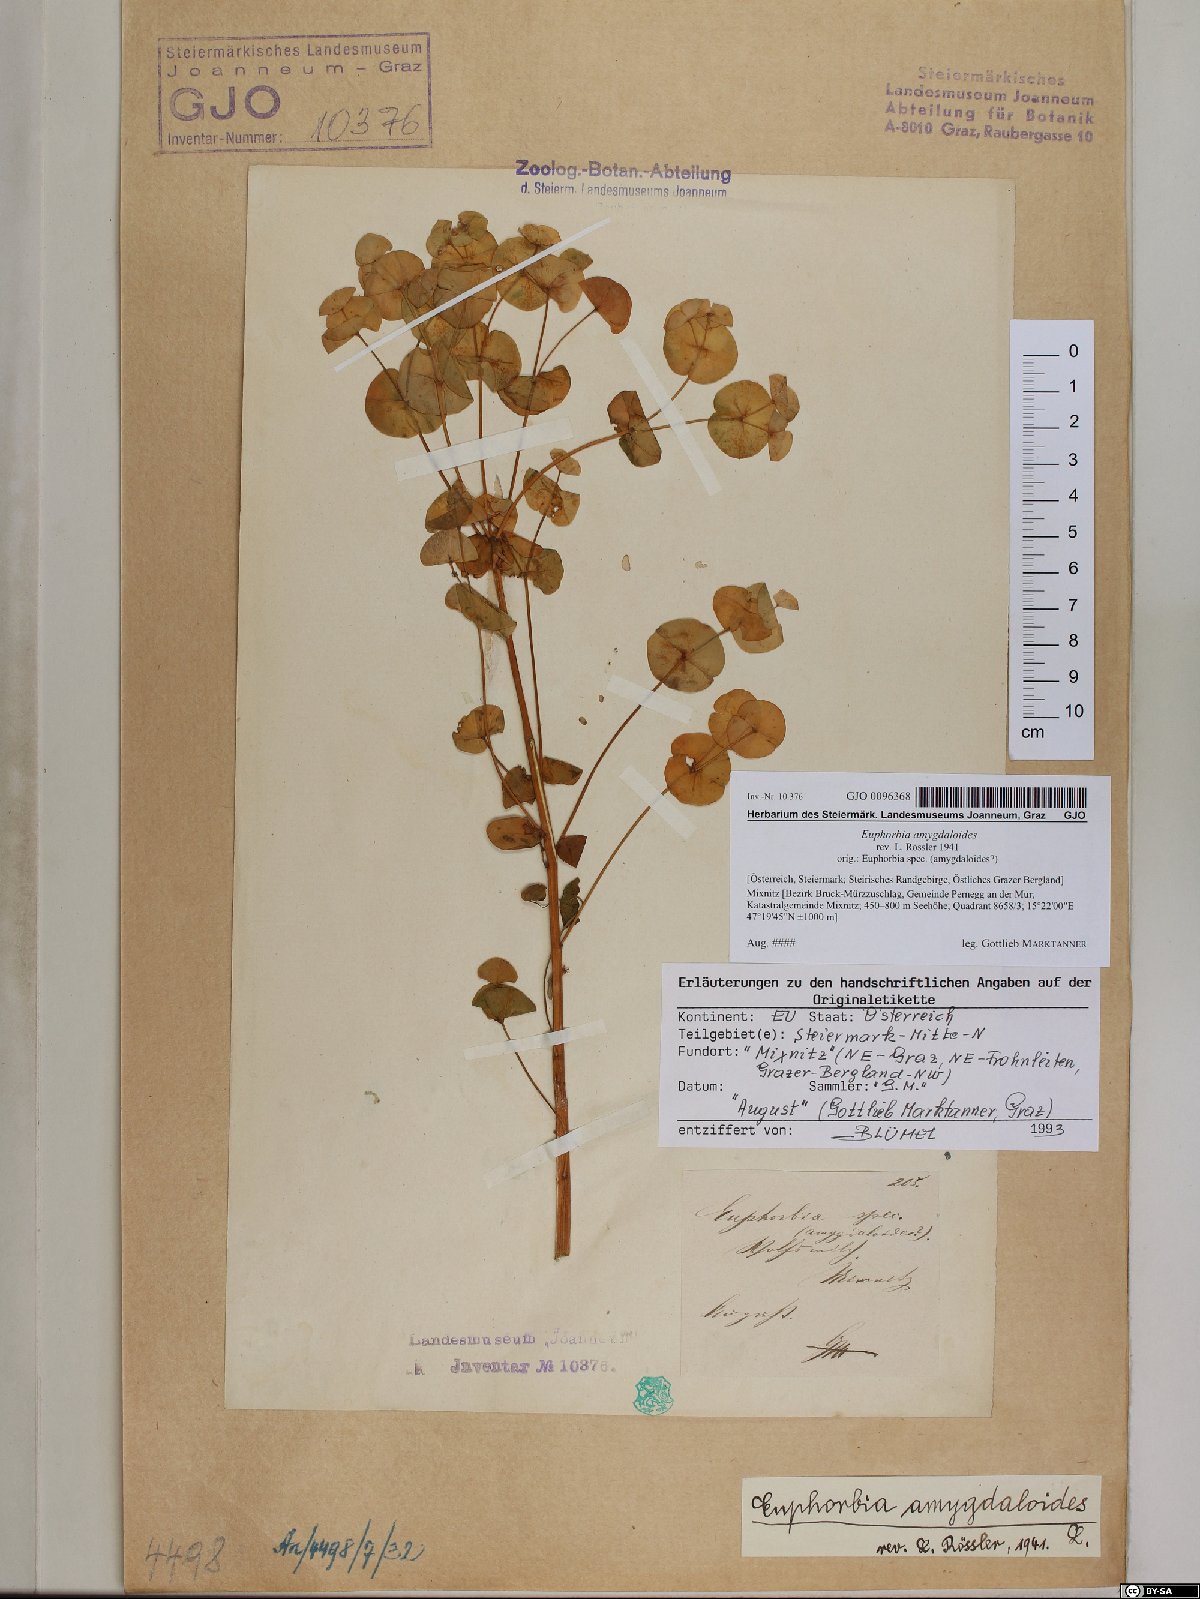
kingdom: Plantae
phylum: Tracheophyta
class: Magnoliopsida
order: Malpighiales
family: Euphorbiaceae
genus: Euphorbia
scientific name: Euphorbia amygdaloides
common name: Wood spurge
